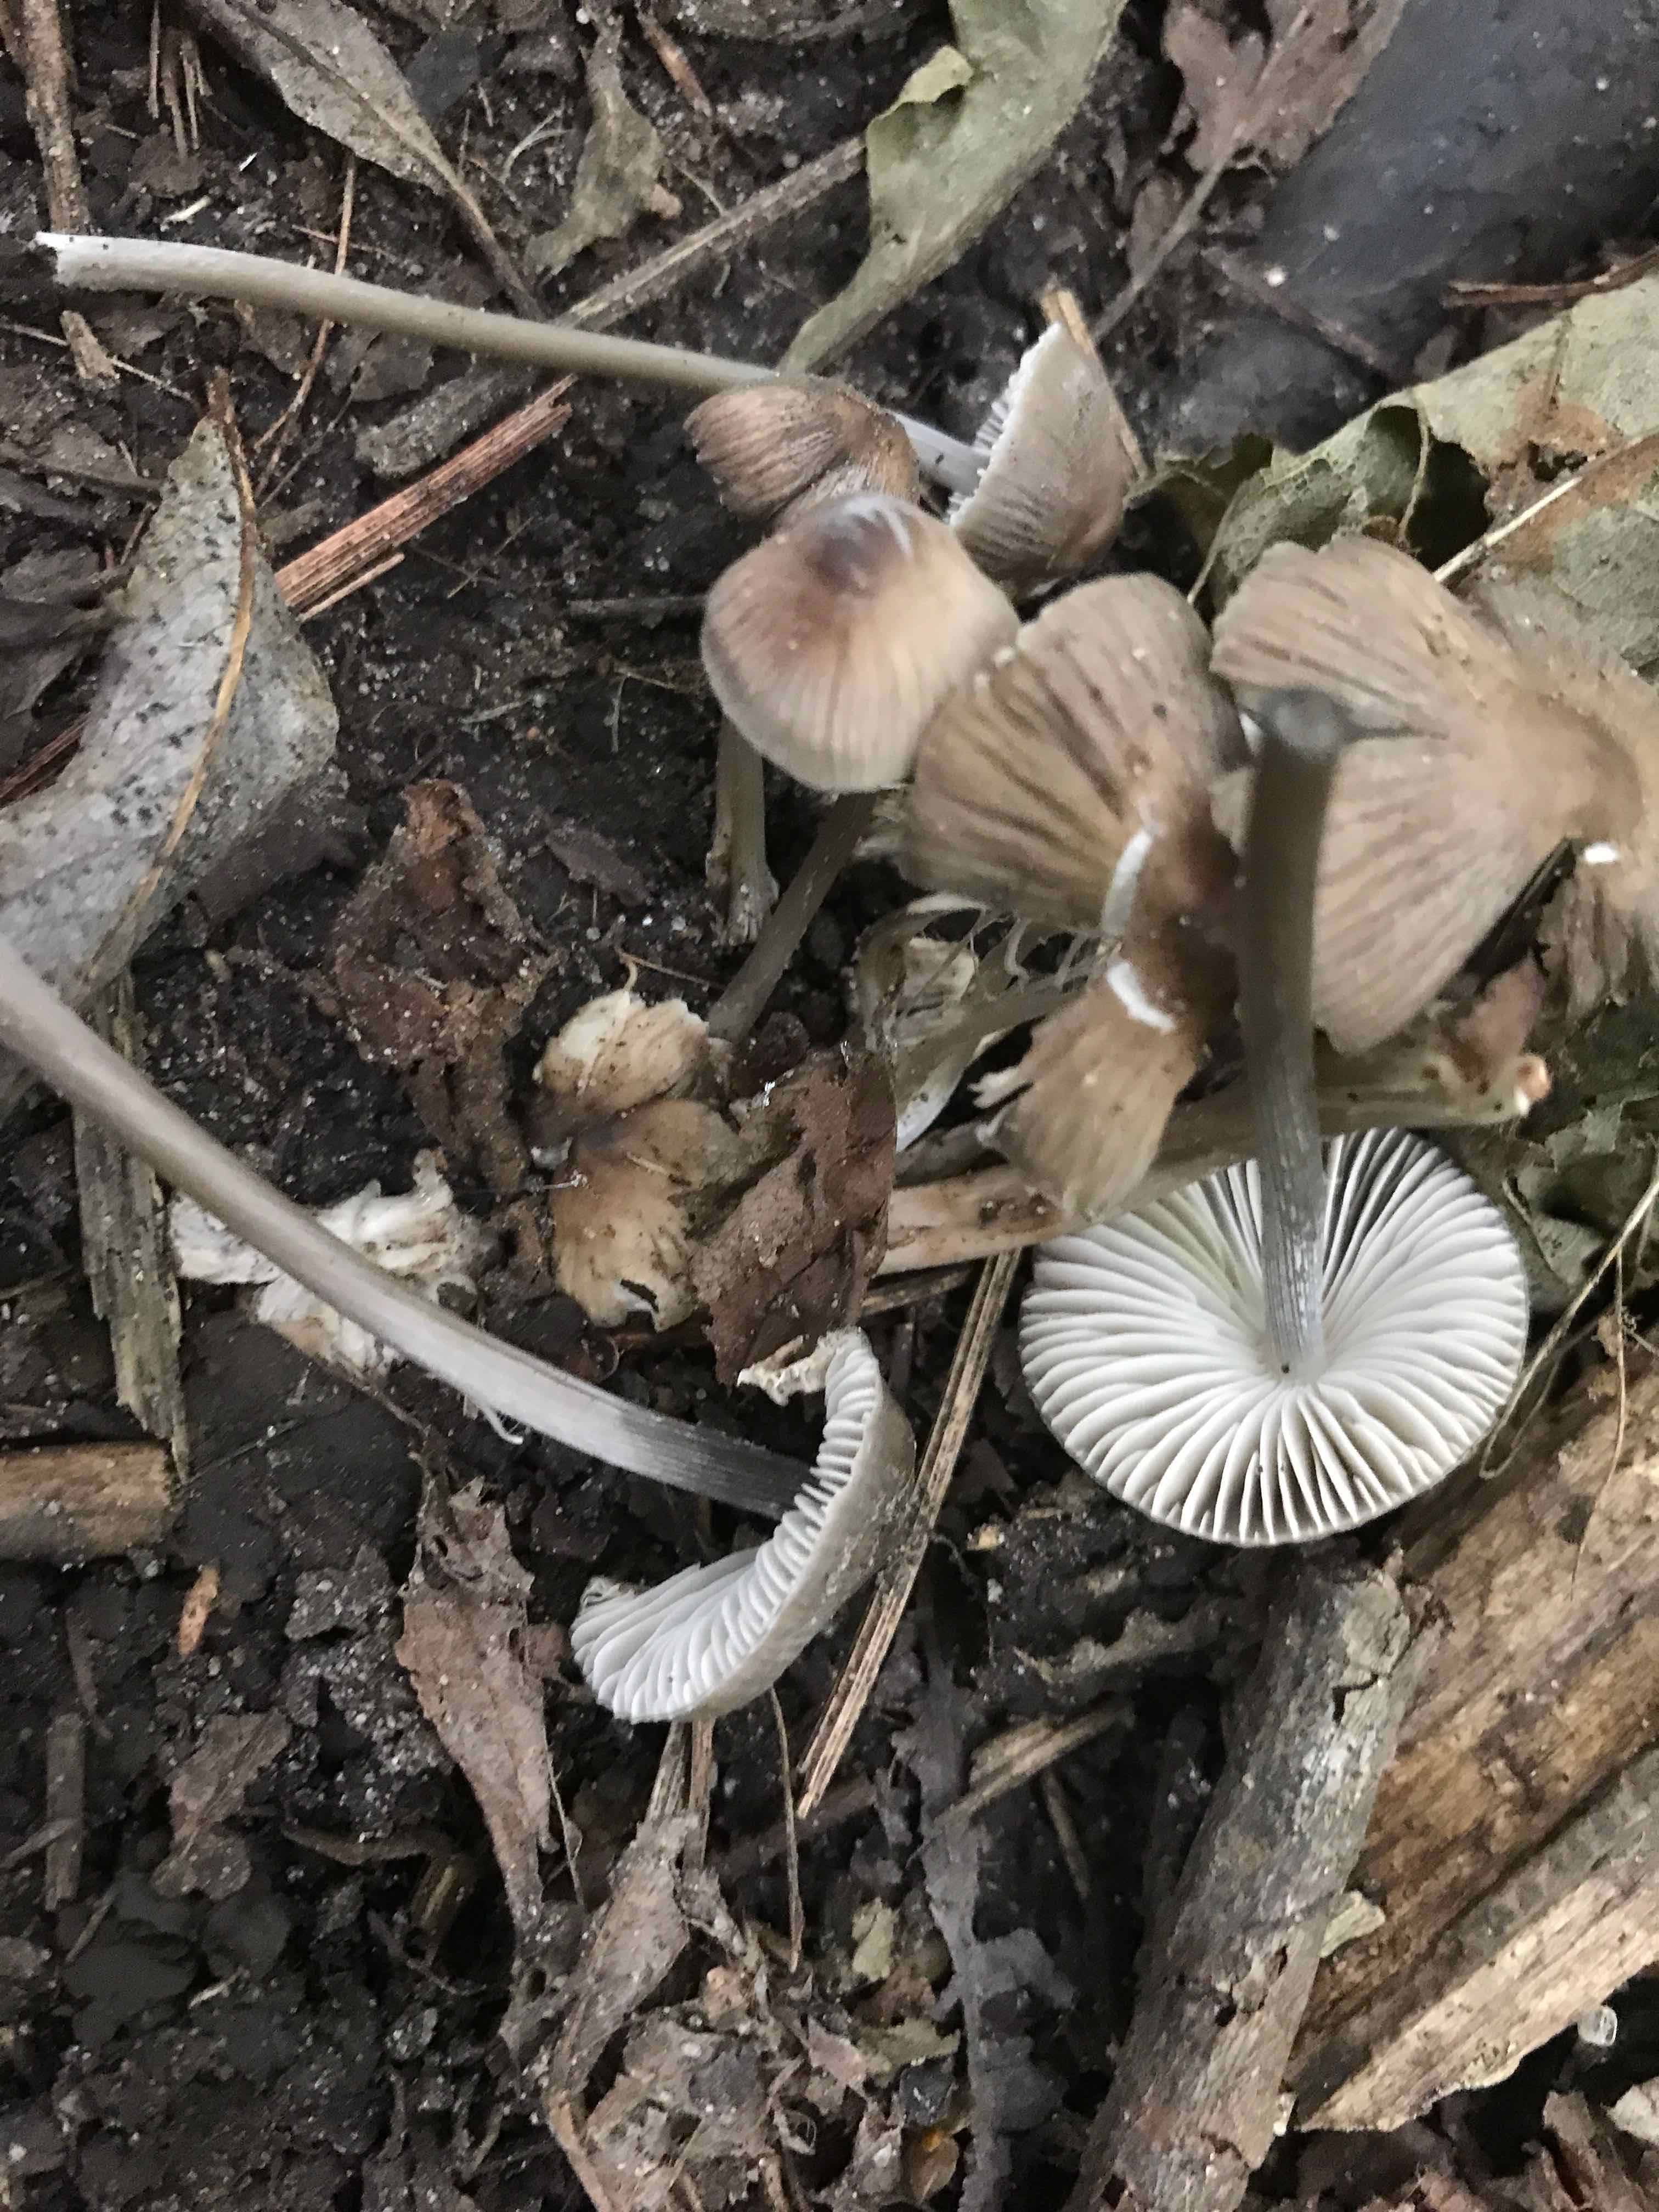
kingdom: Fungi
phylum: Basidiomycota
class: Agaricomycetes
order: Agaricales
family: Mycenaceae
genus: Mycena
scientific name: Mycena
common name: huesvamp
